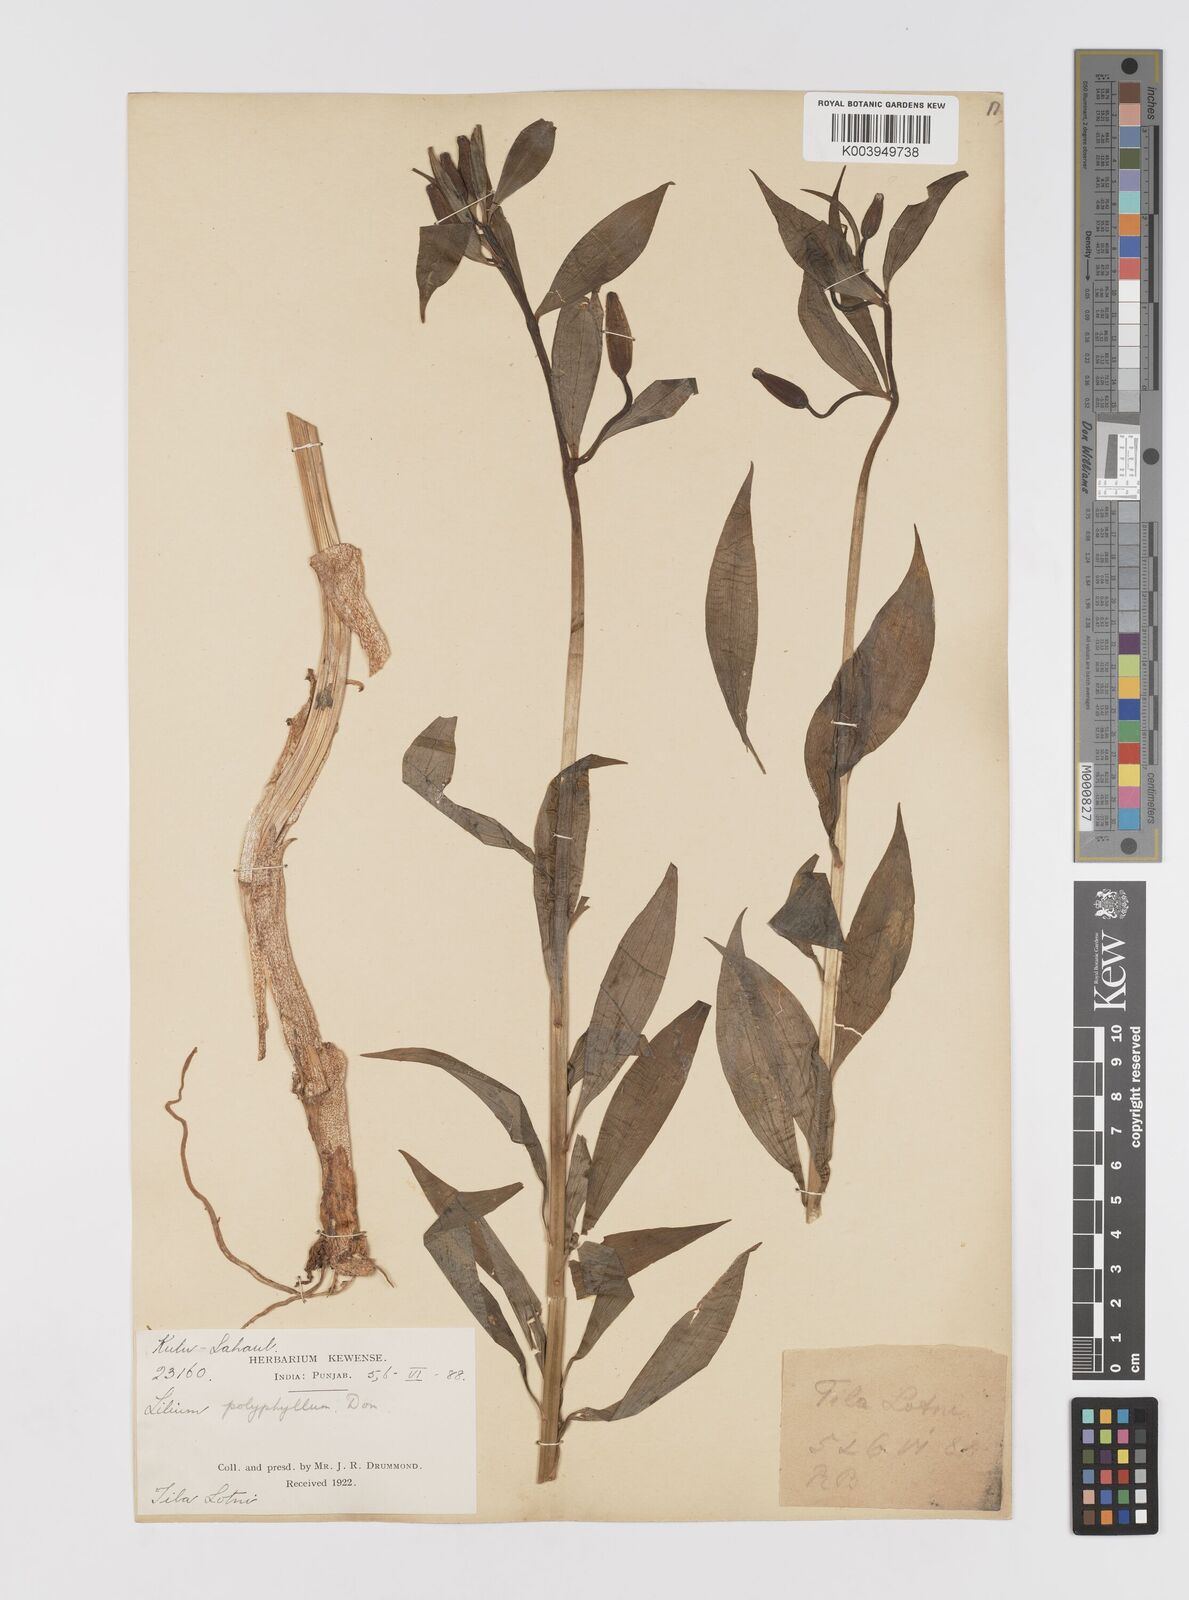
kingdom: Plantae
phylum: Tracheophyta
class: Liliopsida
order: Liliales
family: Liliaceae
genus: Lilium
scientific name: Lilium polyphyllum
